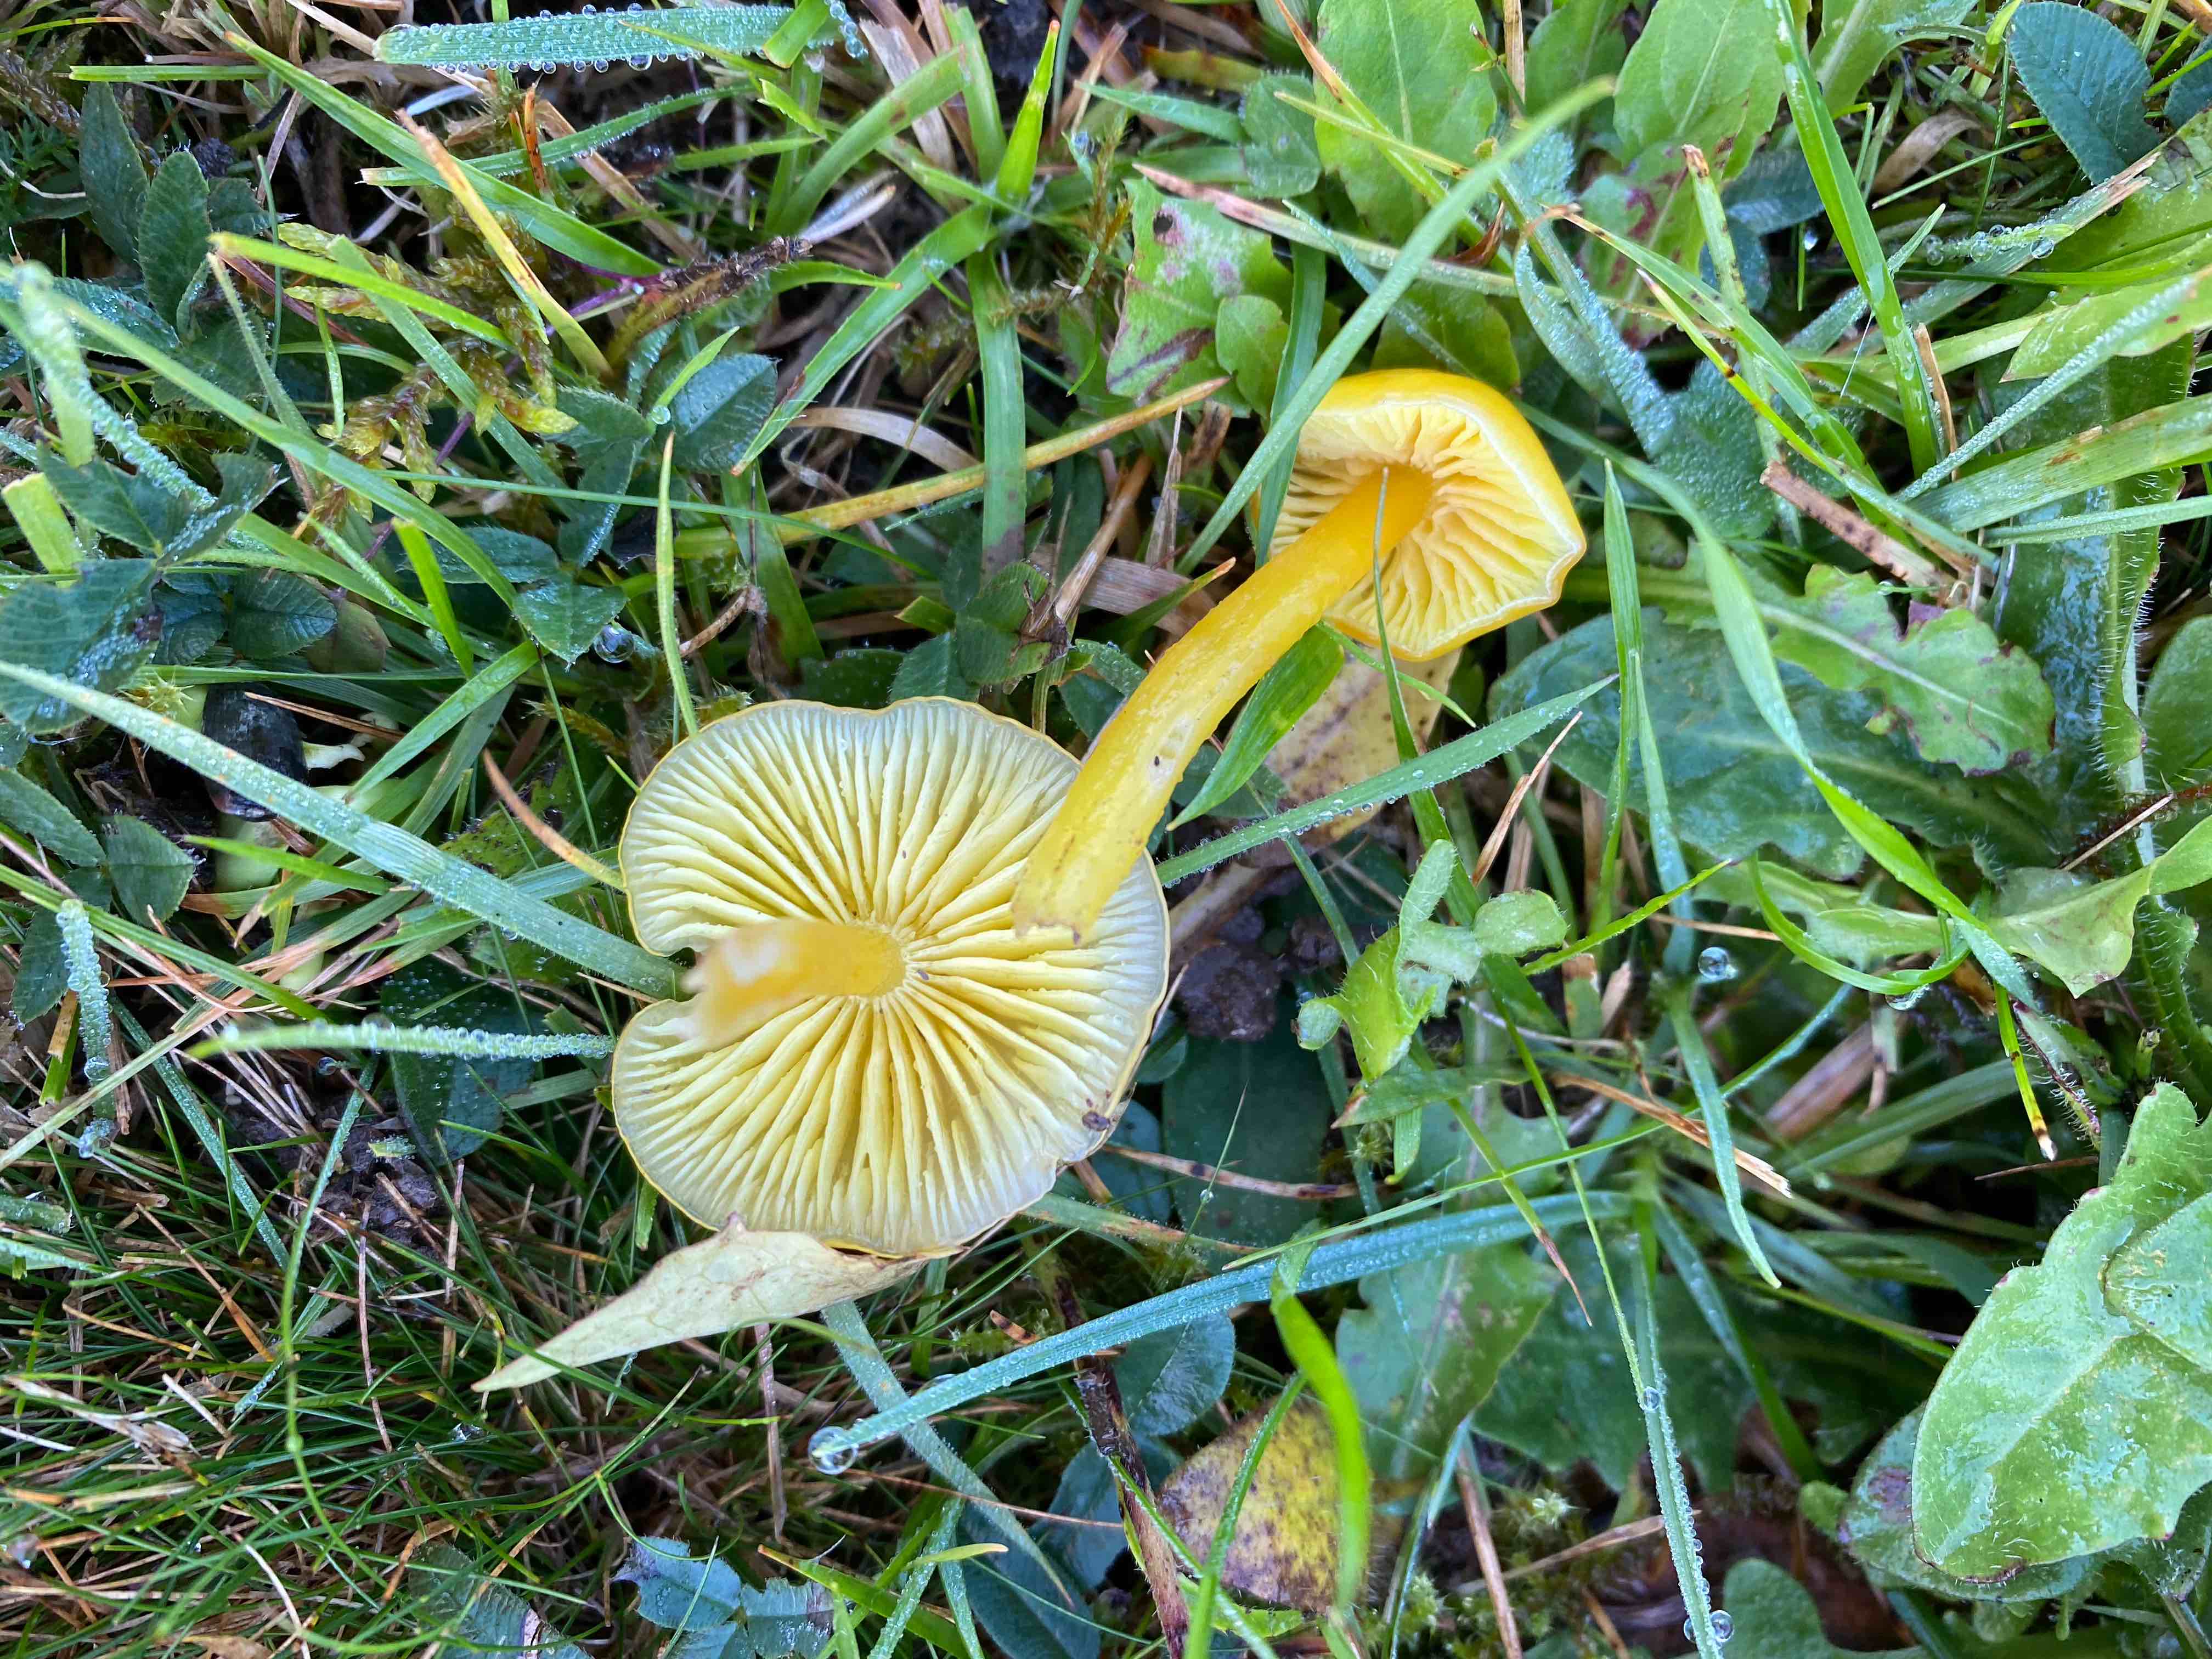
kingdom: Fungi
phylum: Basidiomycota
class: Agaricomycetes
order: Agaricales
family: Hygrophoraceae
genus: Hygrocybe
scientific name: Hygrocybe ceracea
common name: voksgul vokshat
